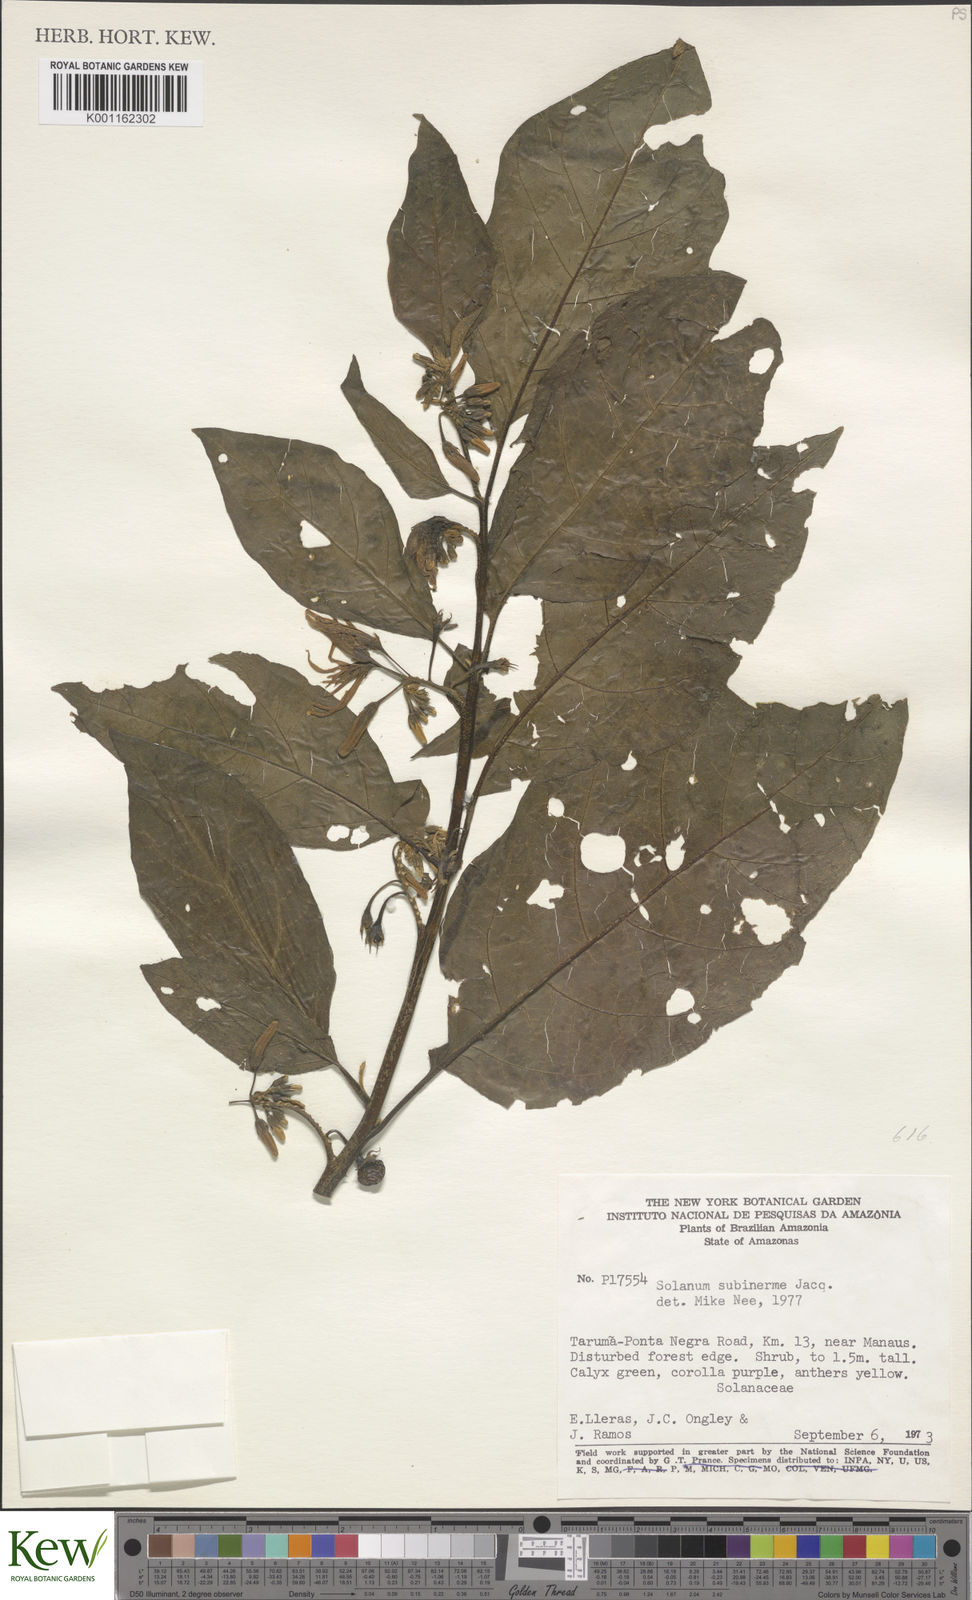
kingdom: Plantae
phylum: Tracheophyta
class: Magnoliopsida
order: Solanales
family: Solanaceae
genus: Solanum
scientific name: Solanum subinerme
